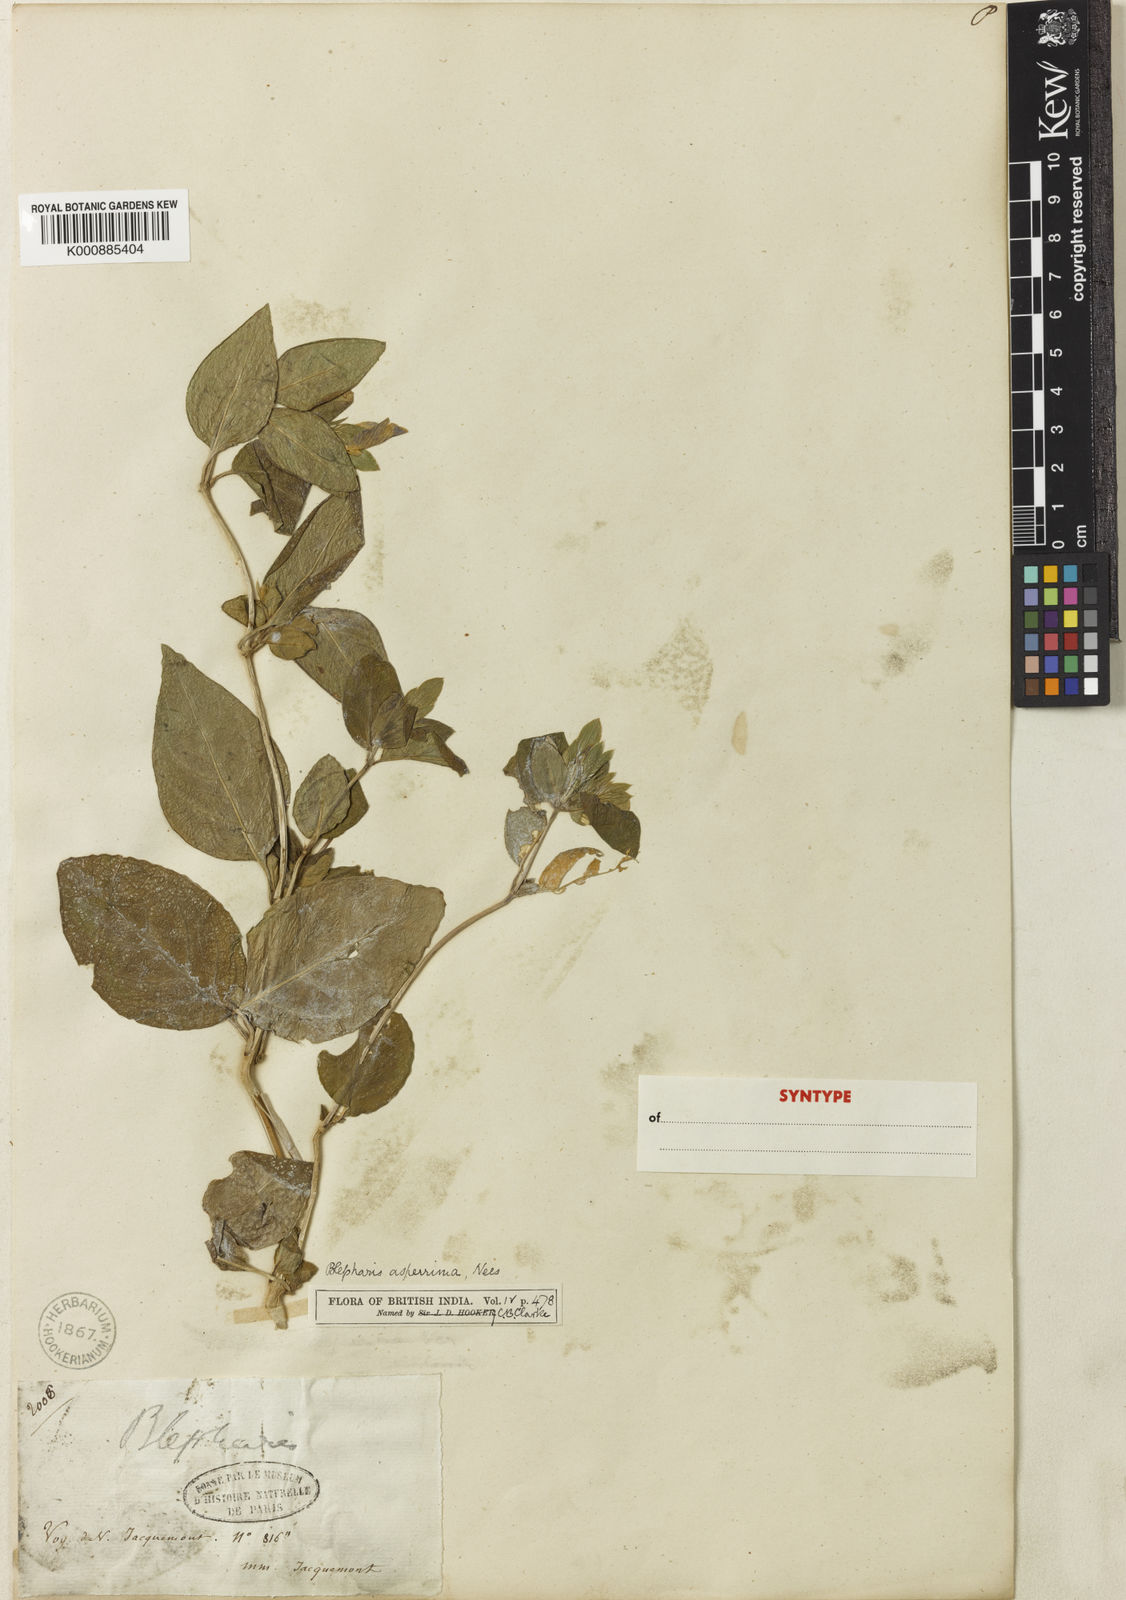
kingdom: Plantae
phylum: Tracheophyta
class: Magnoliopsida
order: Lamiales
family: Acanthaceae
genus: Cynarospermum
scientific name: Cynarospermum asperrimum
